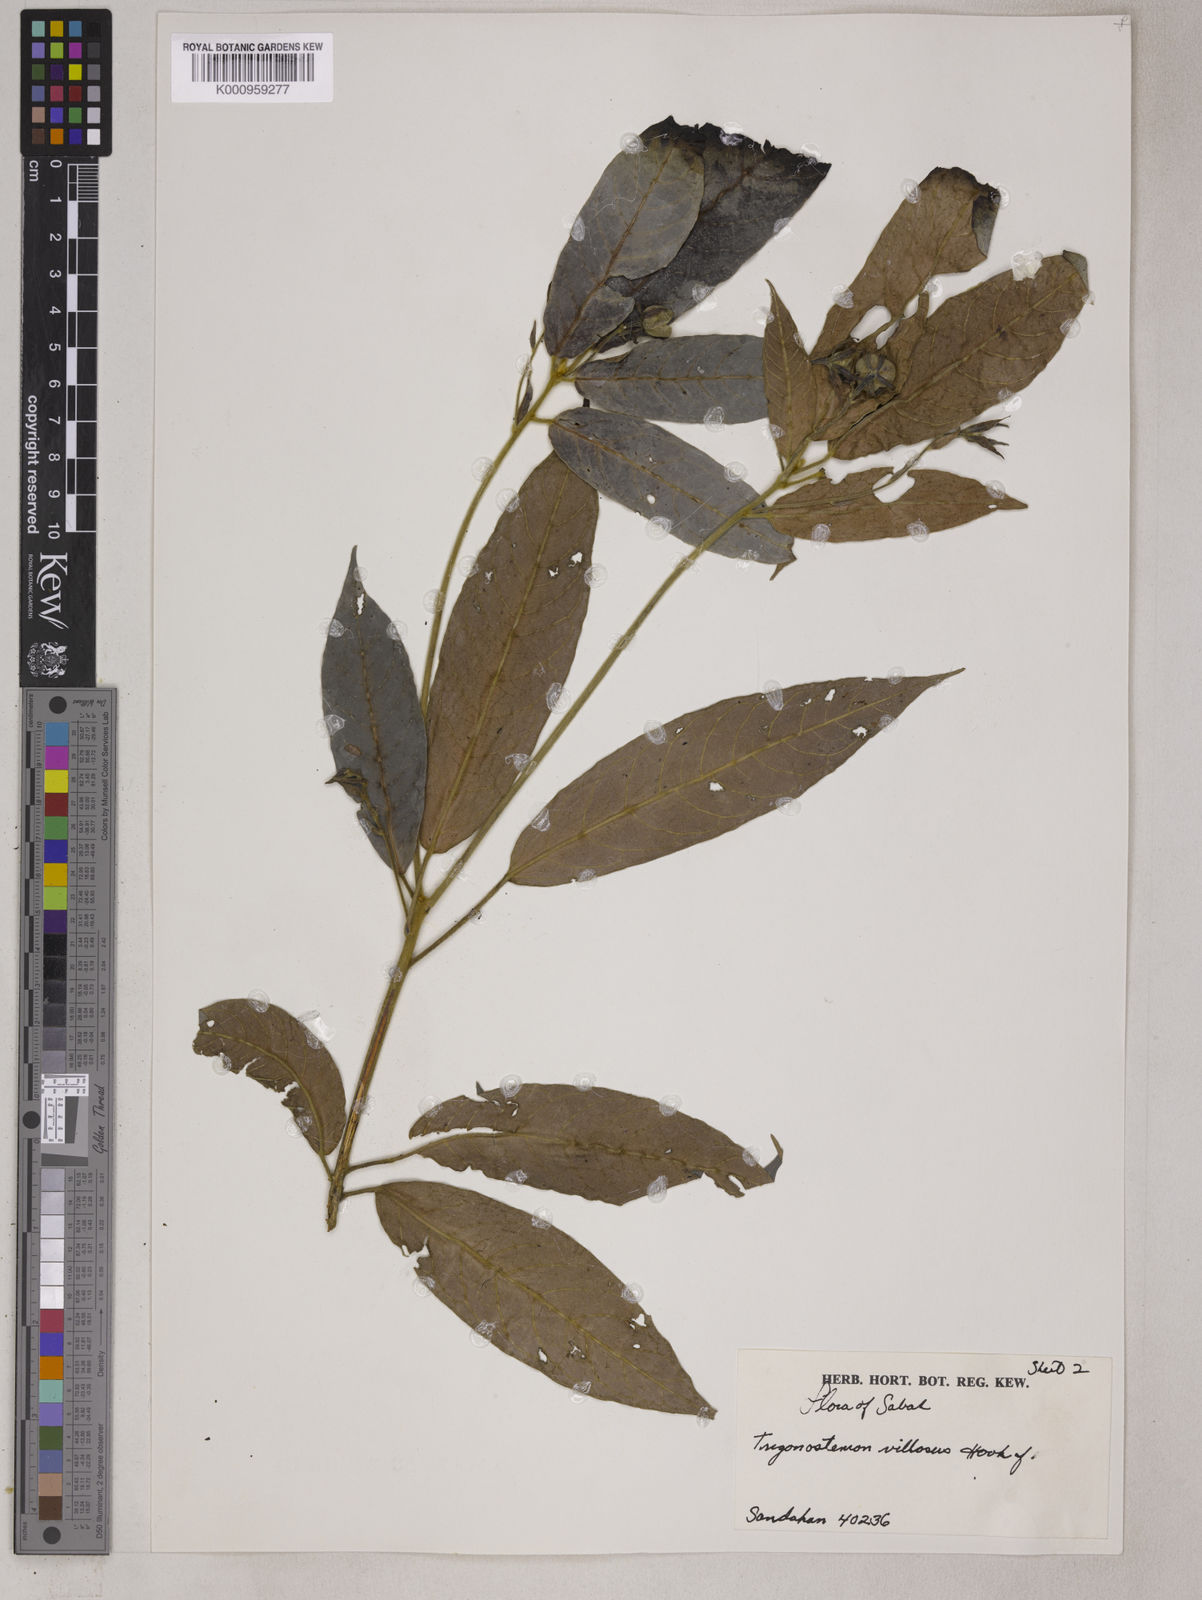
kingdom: Plantae
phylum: Tracheophyta
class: Magnoliopsida
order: Malpighiales
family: Euphorbiaceae
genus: Trigonostemon
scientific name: Trigonostemon villosus
